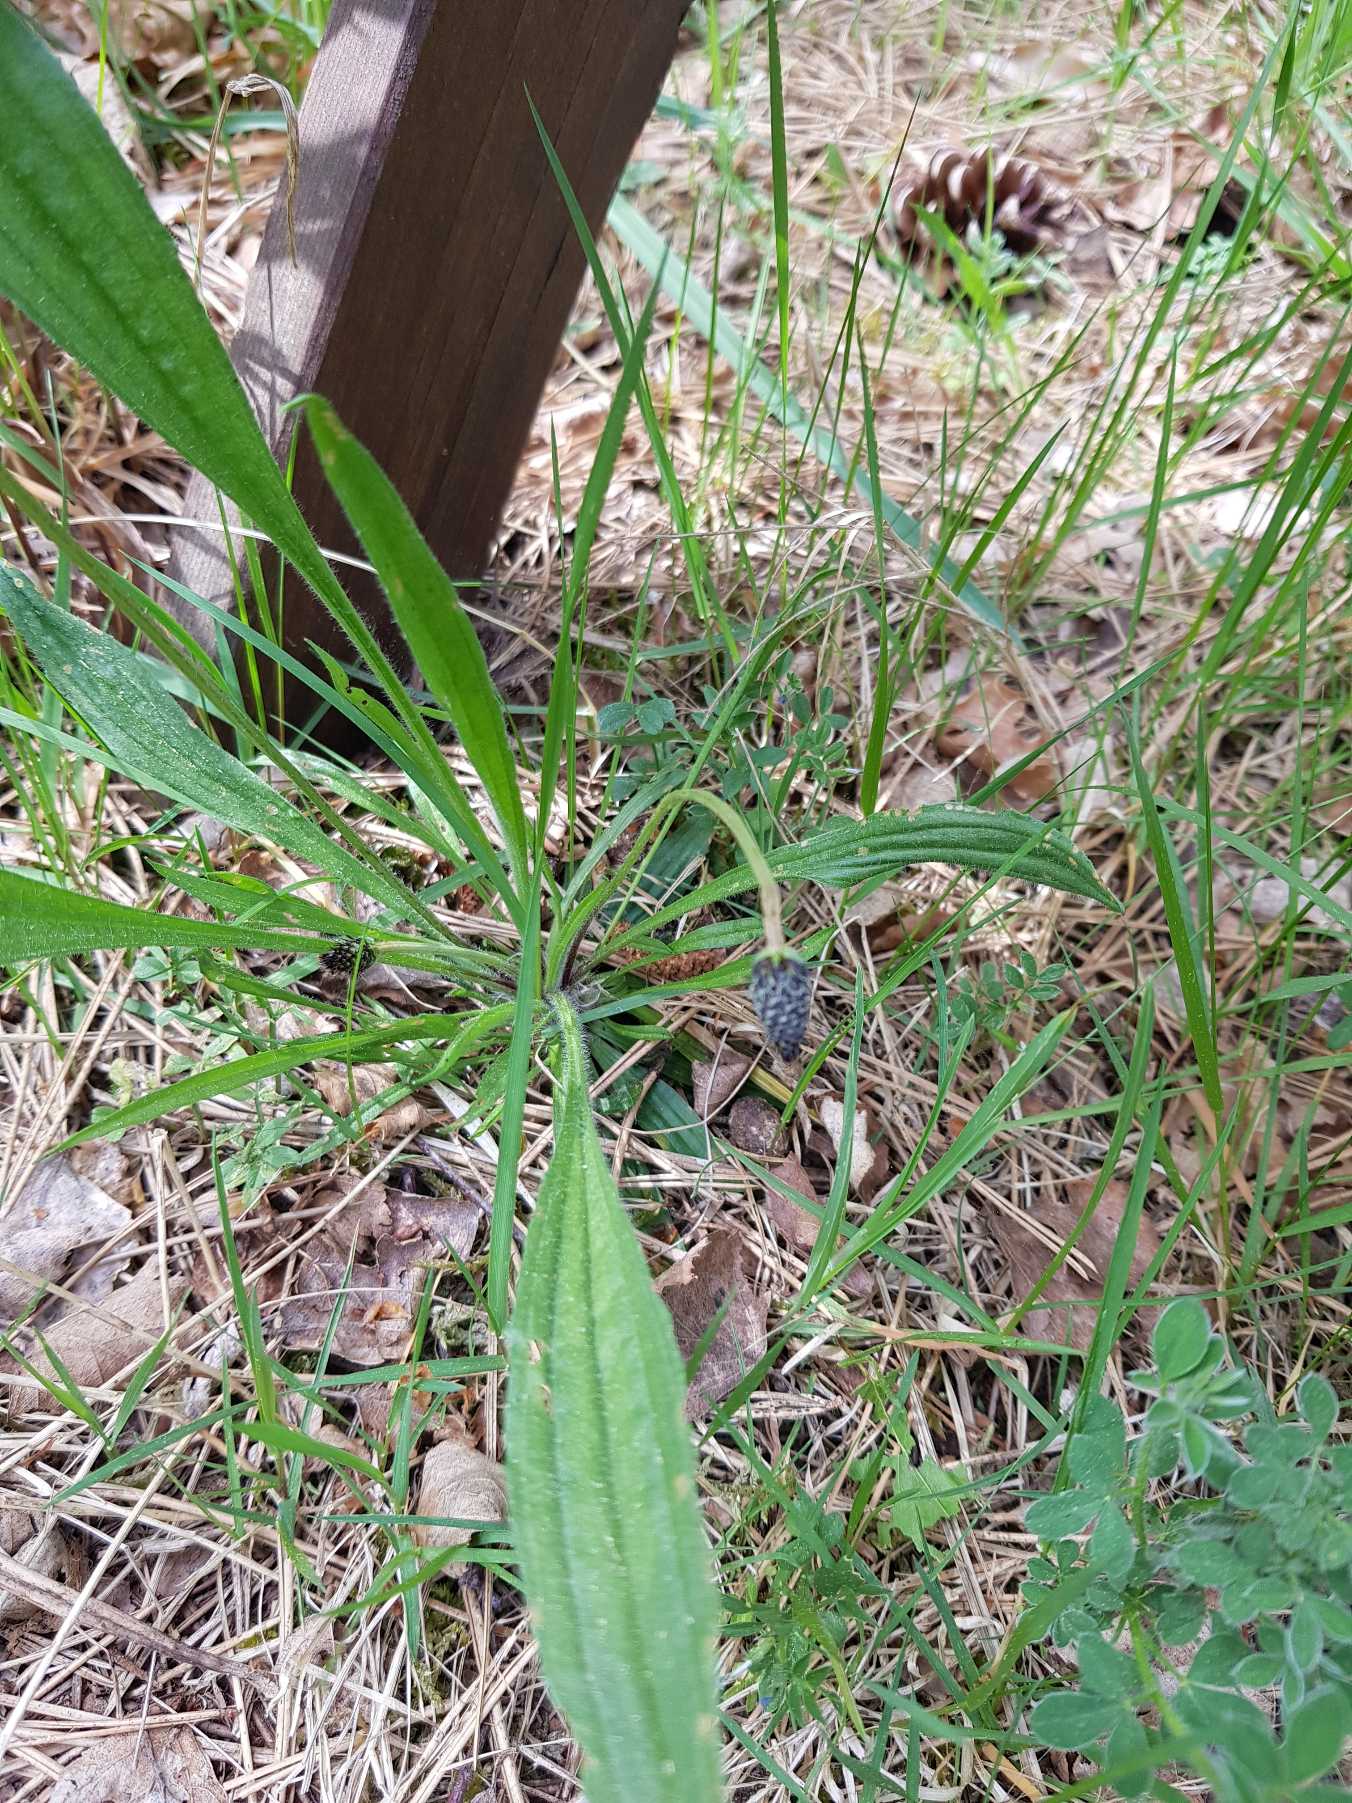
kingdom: Plantae
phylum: Tracheophyta
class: Magnoliopsida
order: Lamiales
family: Plantaginaceae
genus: Plantago
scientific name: Plantago lanceolata
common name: Lancet-vejbred
